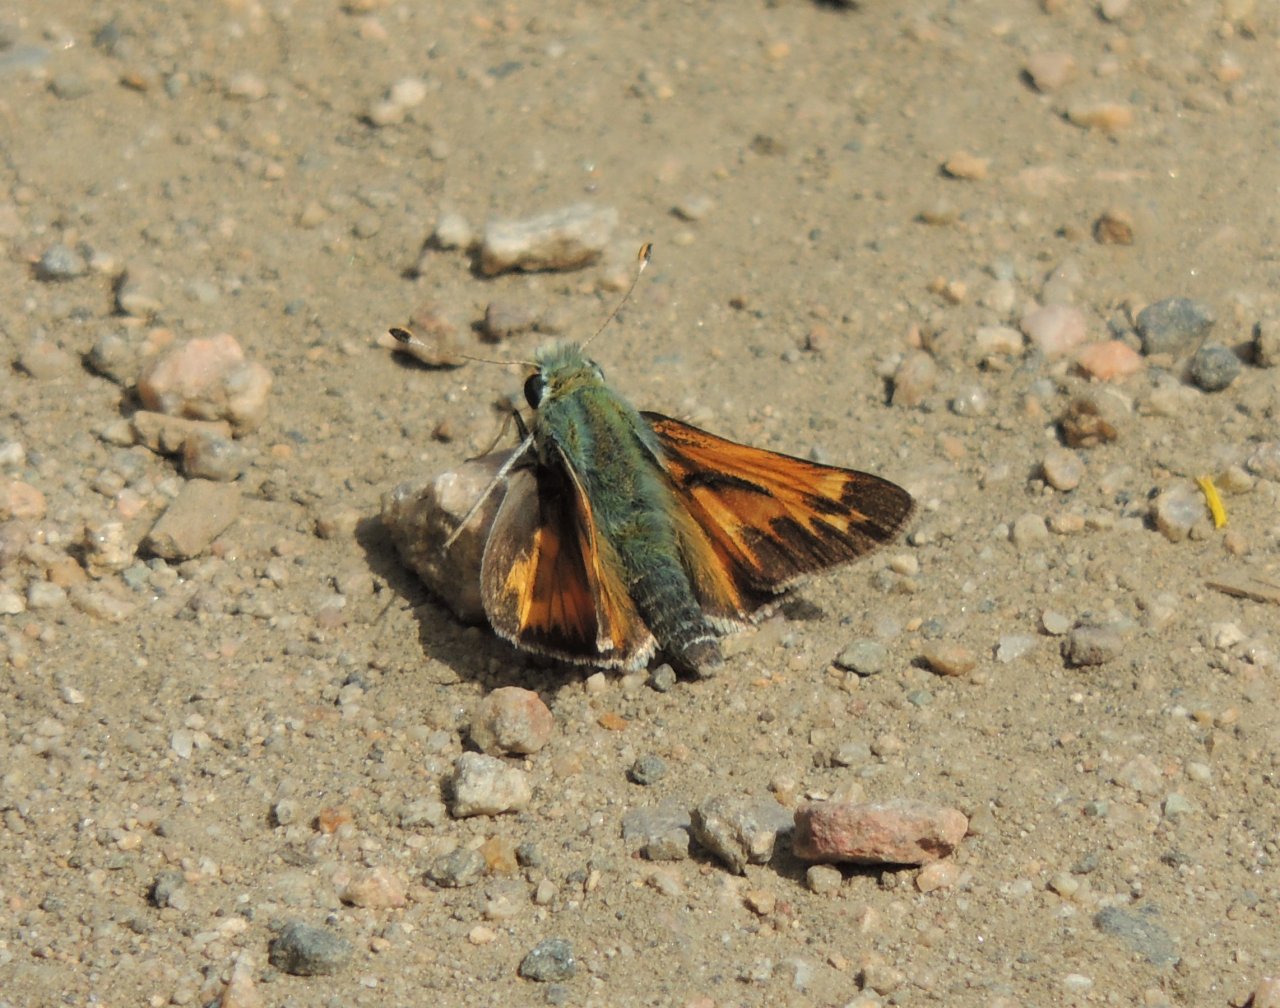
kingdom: Animalia
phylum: Arthropoda
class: Insecta
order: Lepidoptera
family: Hesperiidae
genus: Hesperia
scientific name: Hesperia juba
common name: Juba Skipper
